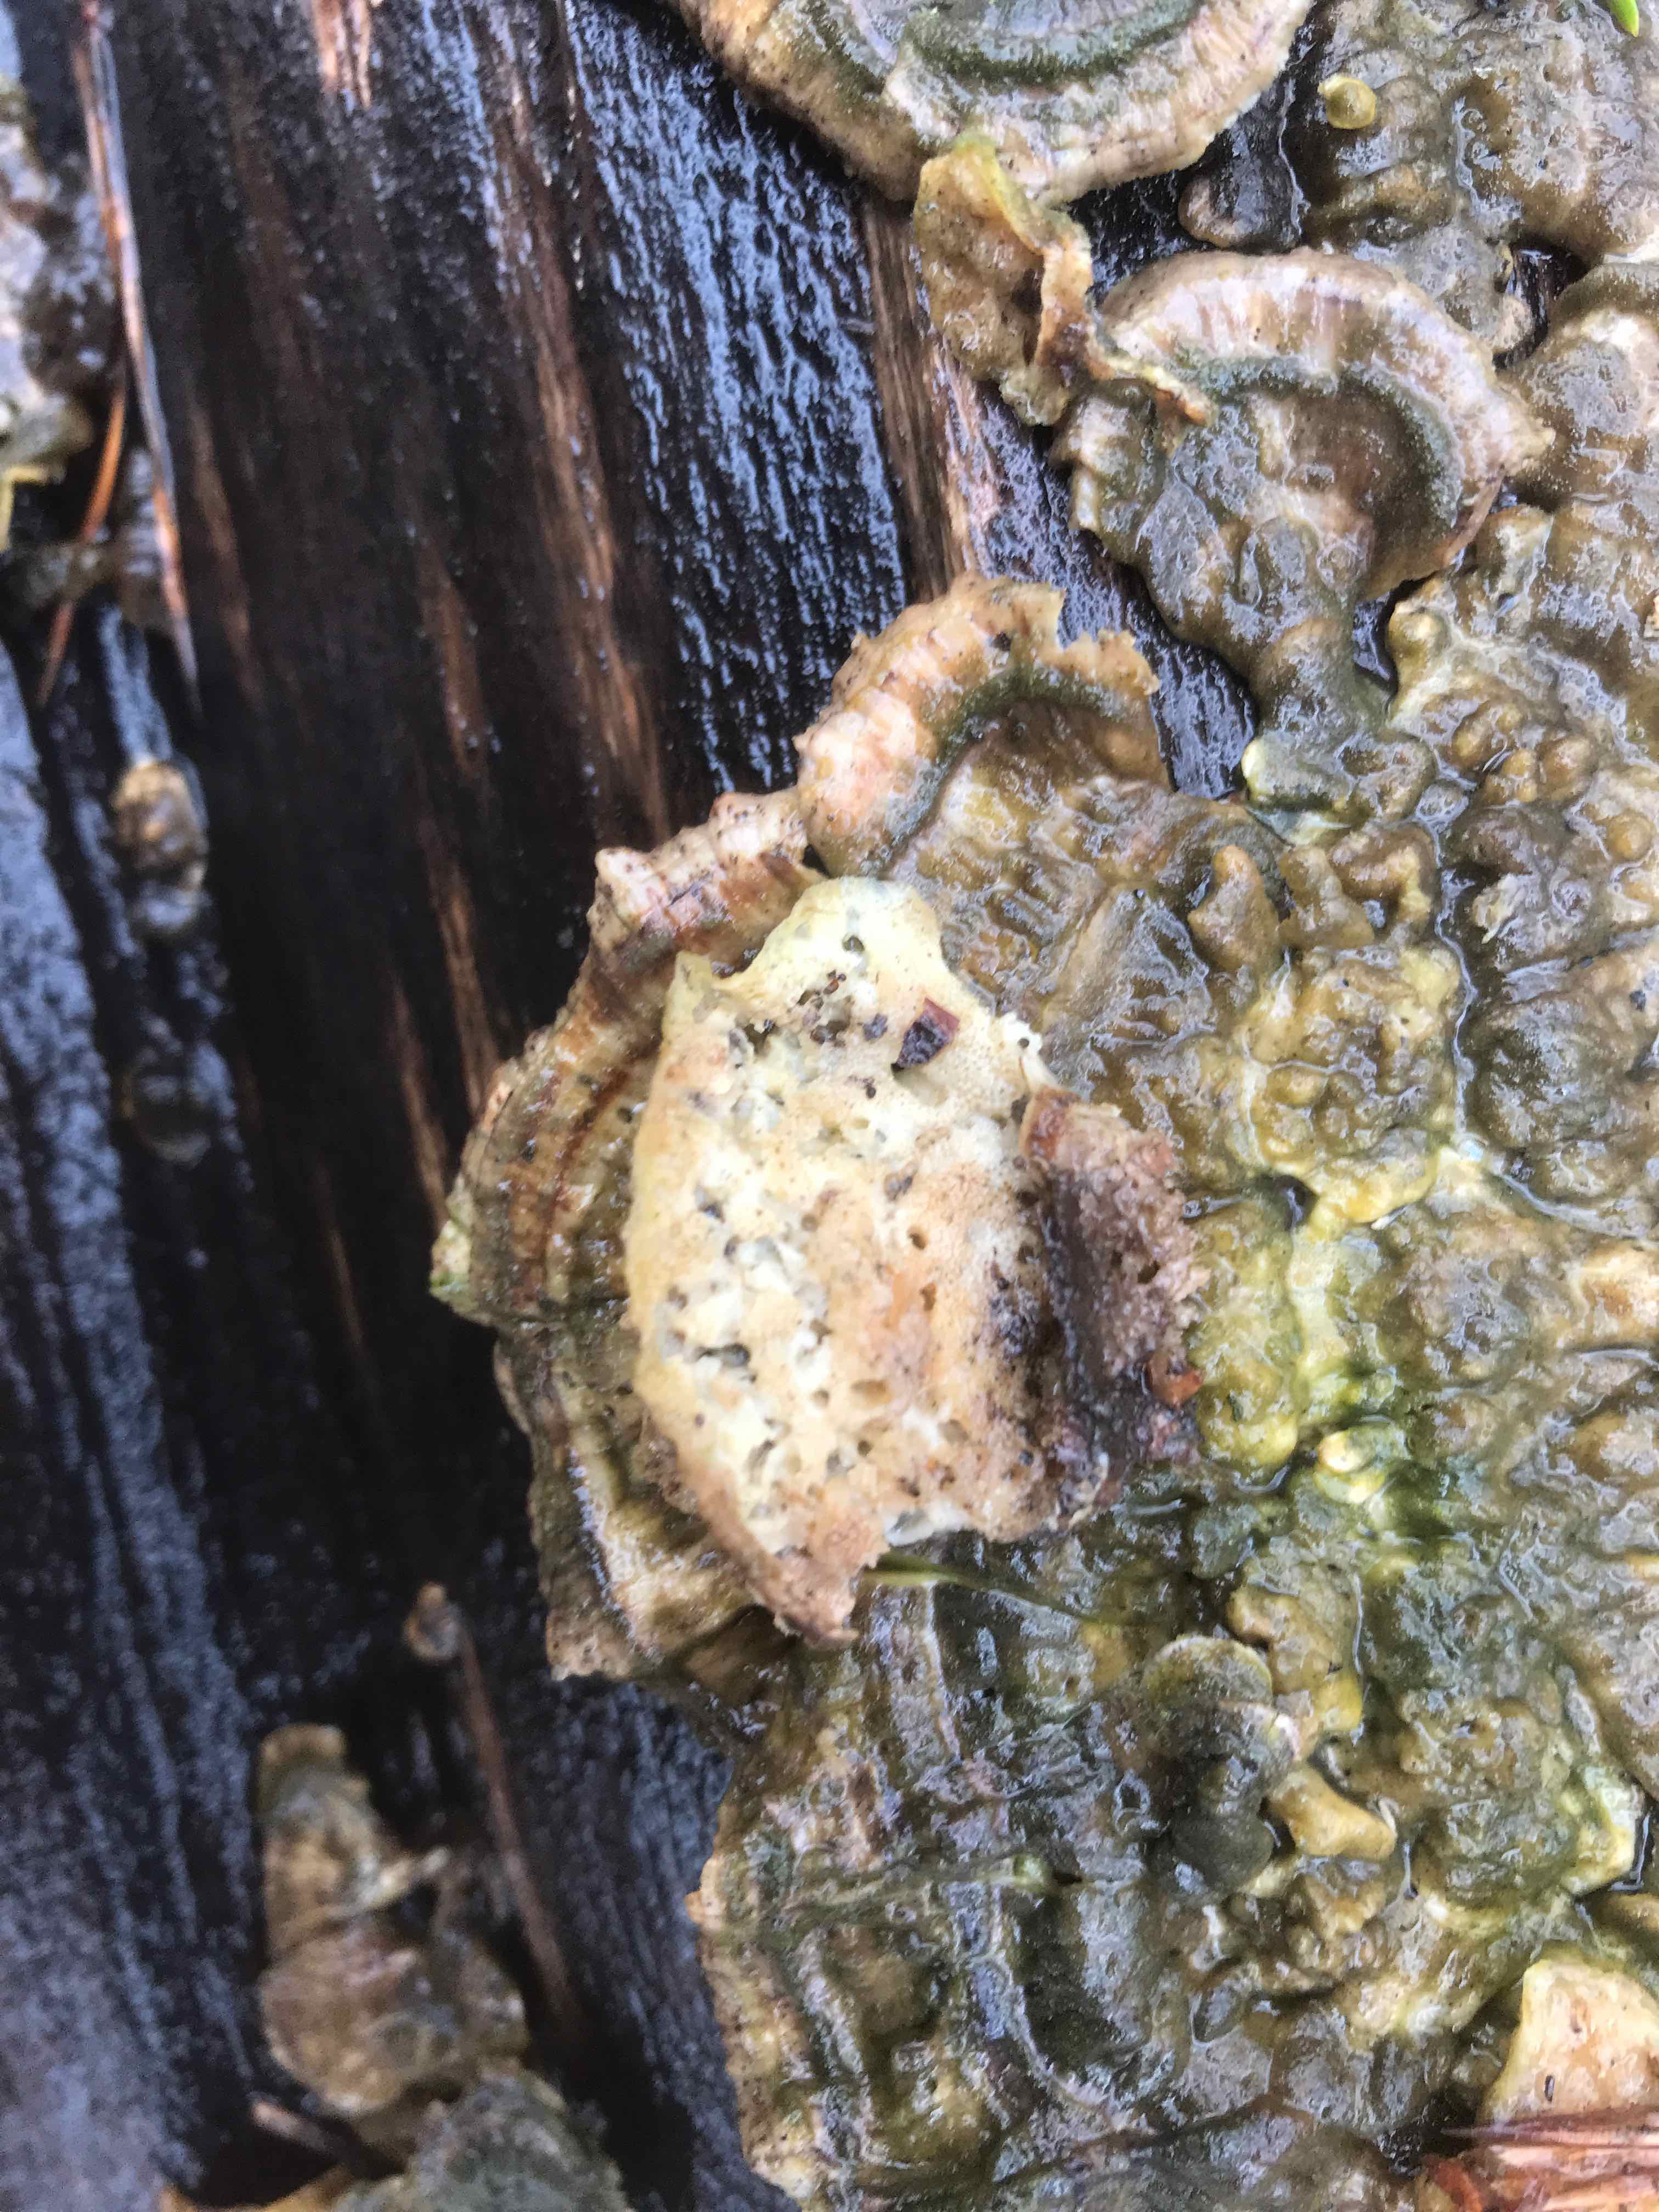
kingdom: Fungi
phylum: Basidiomycota
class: Agaricomycetes
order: Polyporales
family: Polyporaceae
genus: Trametes
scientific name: Trametes versicolor
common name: broget læderporesvamp
